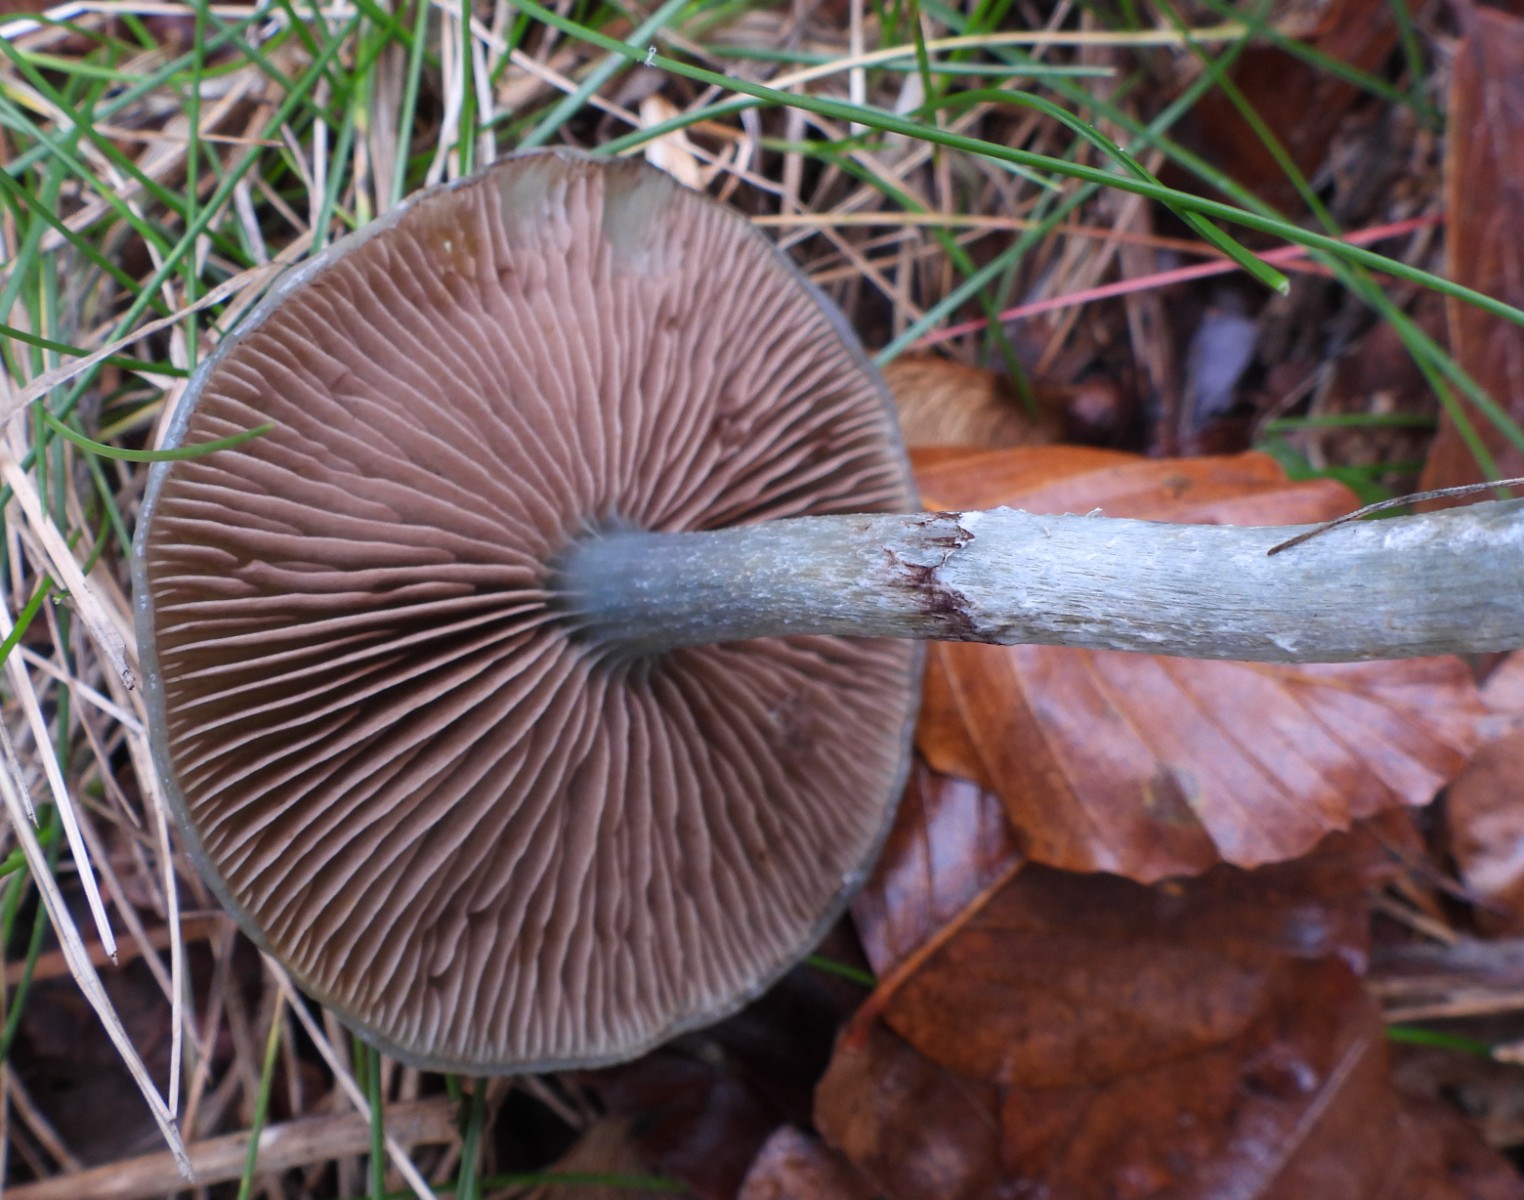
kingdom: Fungi
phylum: Basidiomycota
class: Agaricomycetes
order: Agaricales
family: Strophariaceae
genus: Stropharia
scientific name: Stropharia cyanea
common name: blågrøn bredblad
